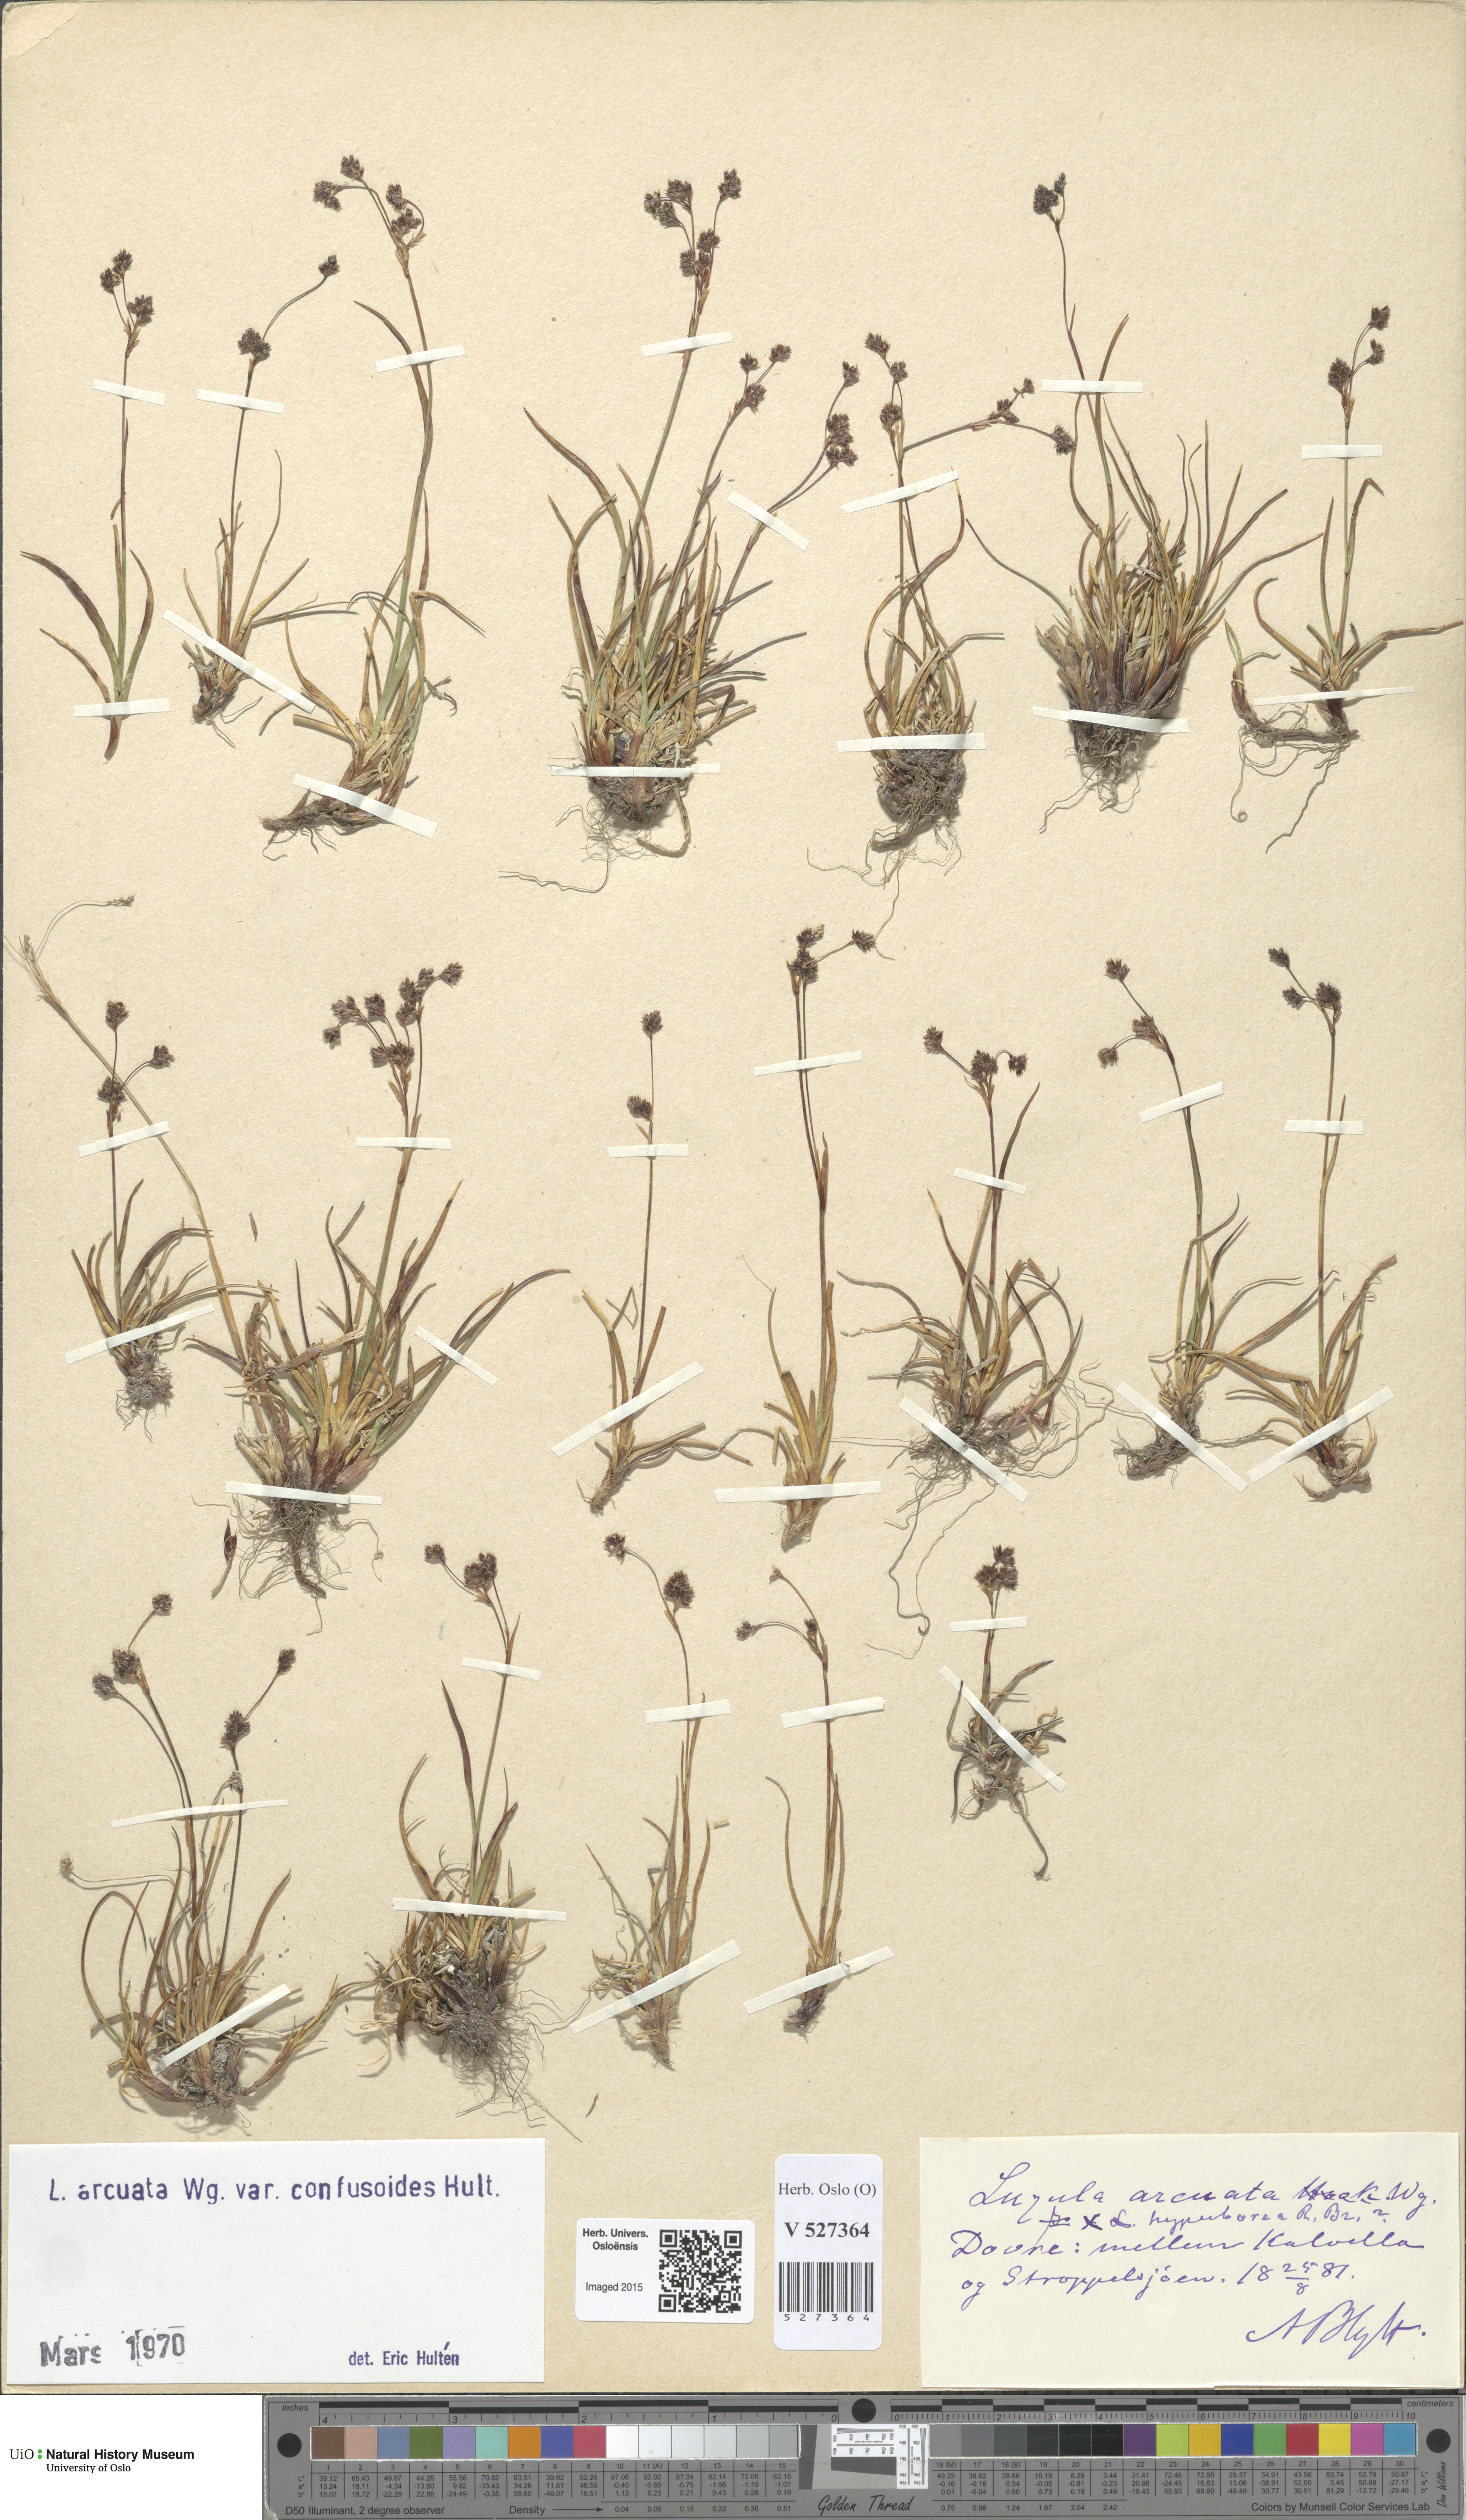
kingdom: Plantae
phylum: Tracheophyta
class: Liliopsida
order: Poales
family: Juncaceae
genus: Luzula
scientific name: Luzula arcuata
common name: Curved wood-rush
